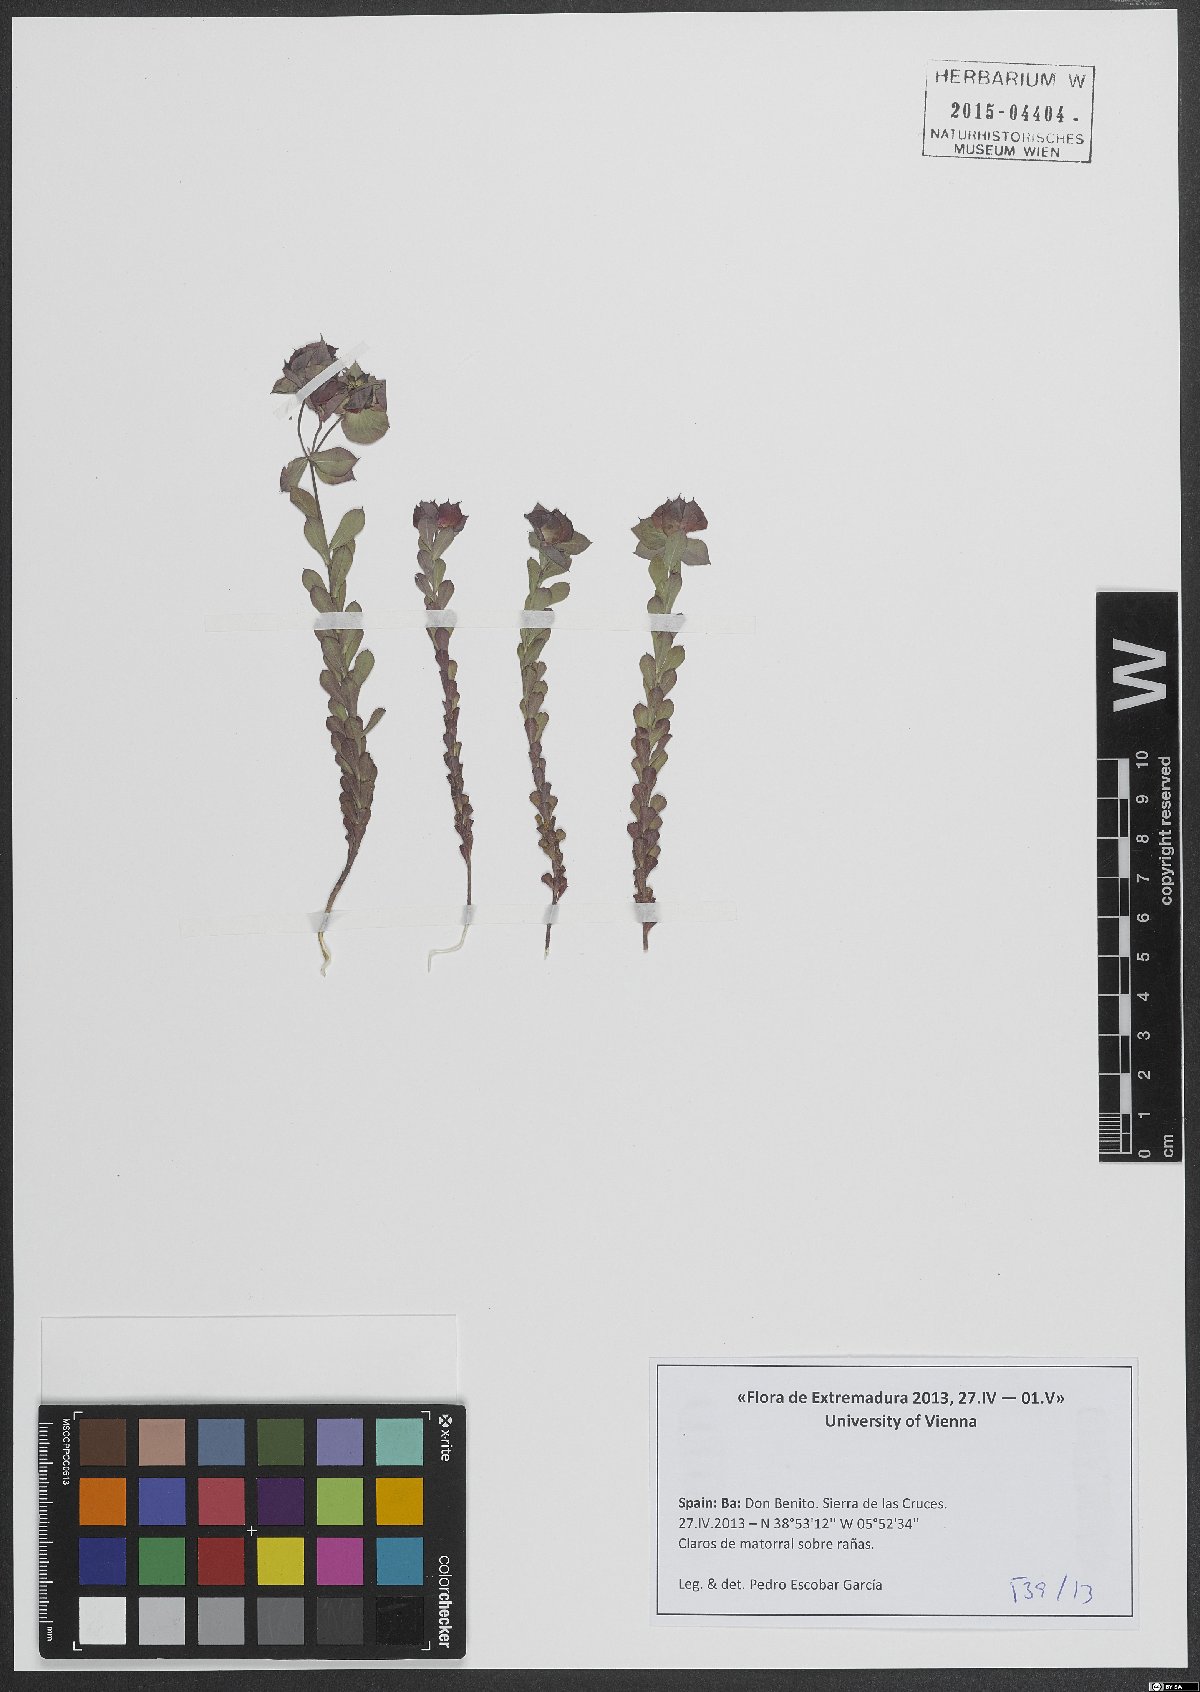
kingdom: Plantae
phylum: Tracheophyta
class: Magnoliopsida
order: Malpighiales
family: Euphorbiaceae
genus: Euphorbia
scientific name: Euphorbia falcata
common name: Sickle spurge
